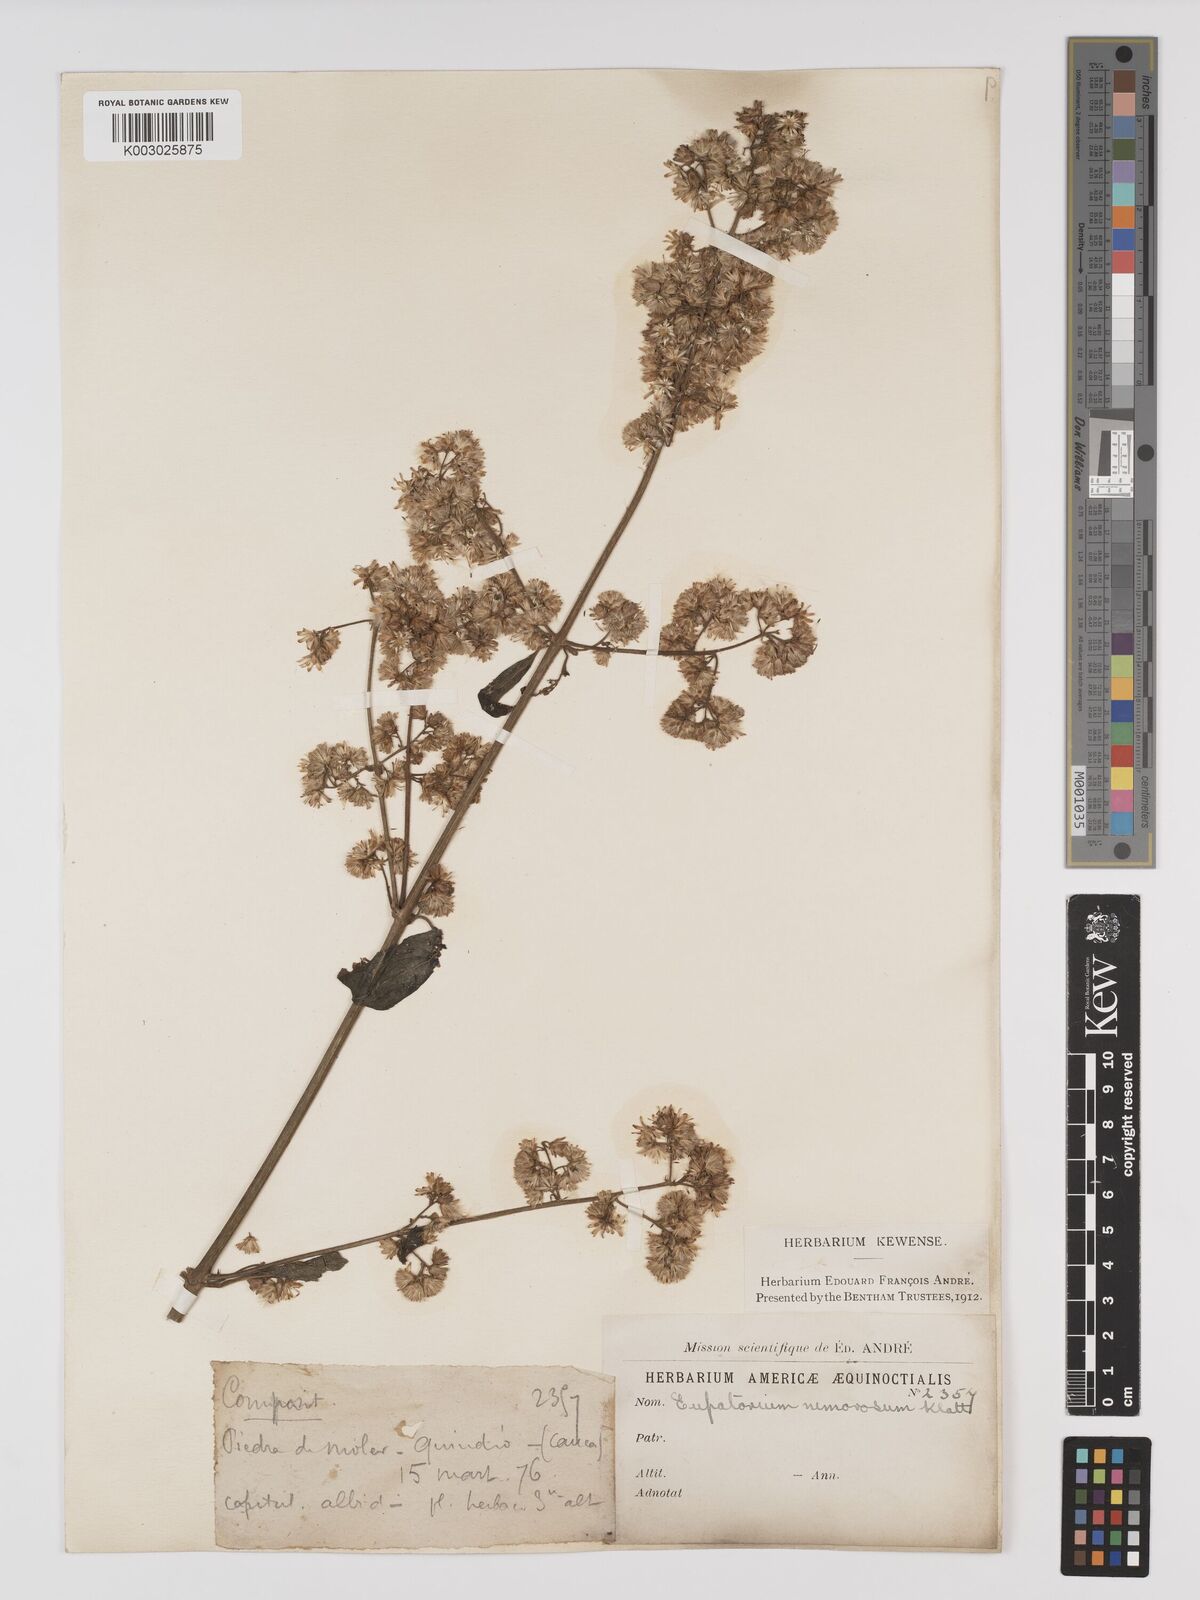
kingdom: Plantae
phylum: Tracheophyta
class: Magnoliopsida
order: Asterales
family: Asteraceae
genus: Polyanthina
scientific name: Polyanthina nemorosa
